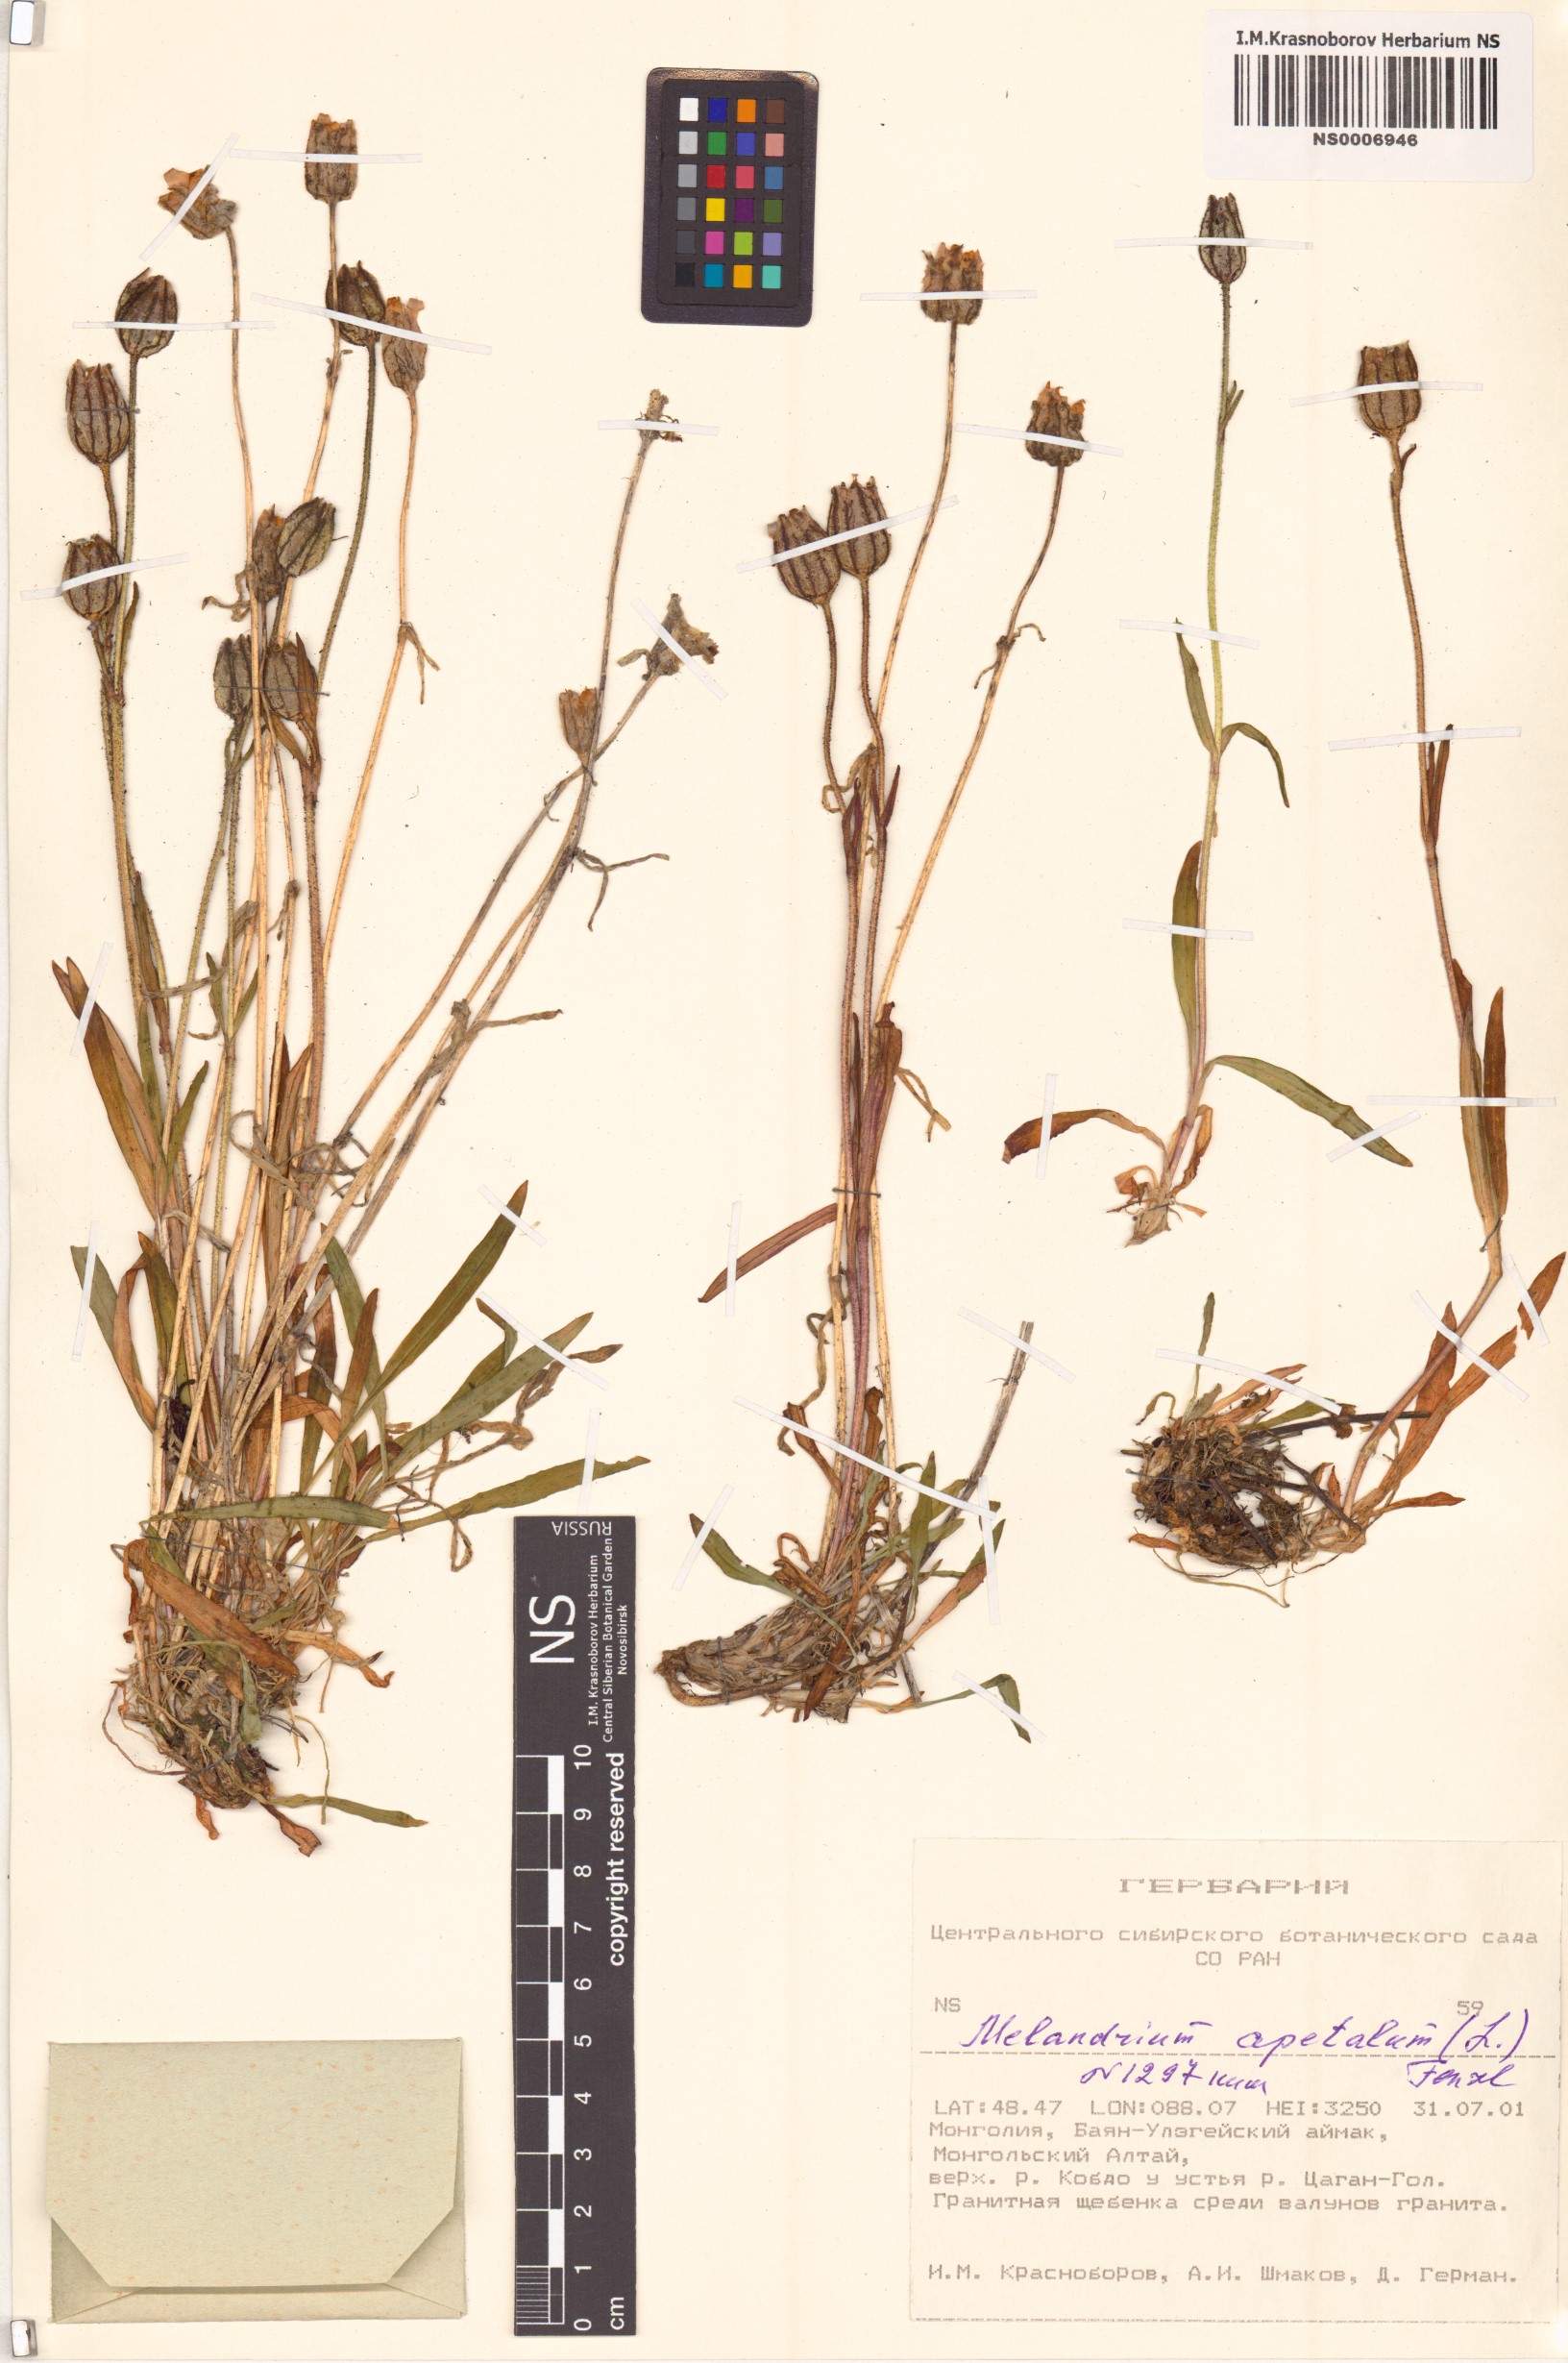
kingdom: Plantae
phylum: Tracheophyta
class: Magnoliopsida
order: Caryophyllales
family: Caryophyllaceae
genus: Silene
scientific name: Silene wahlbergella
